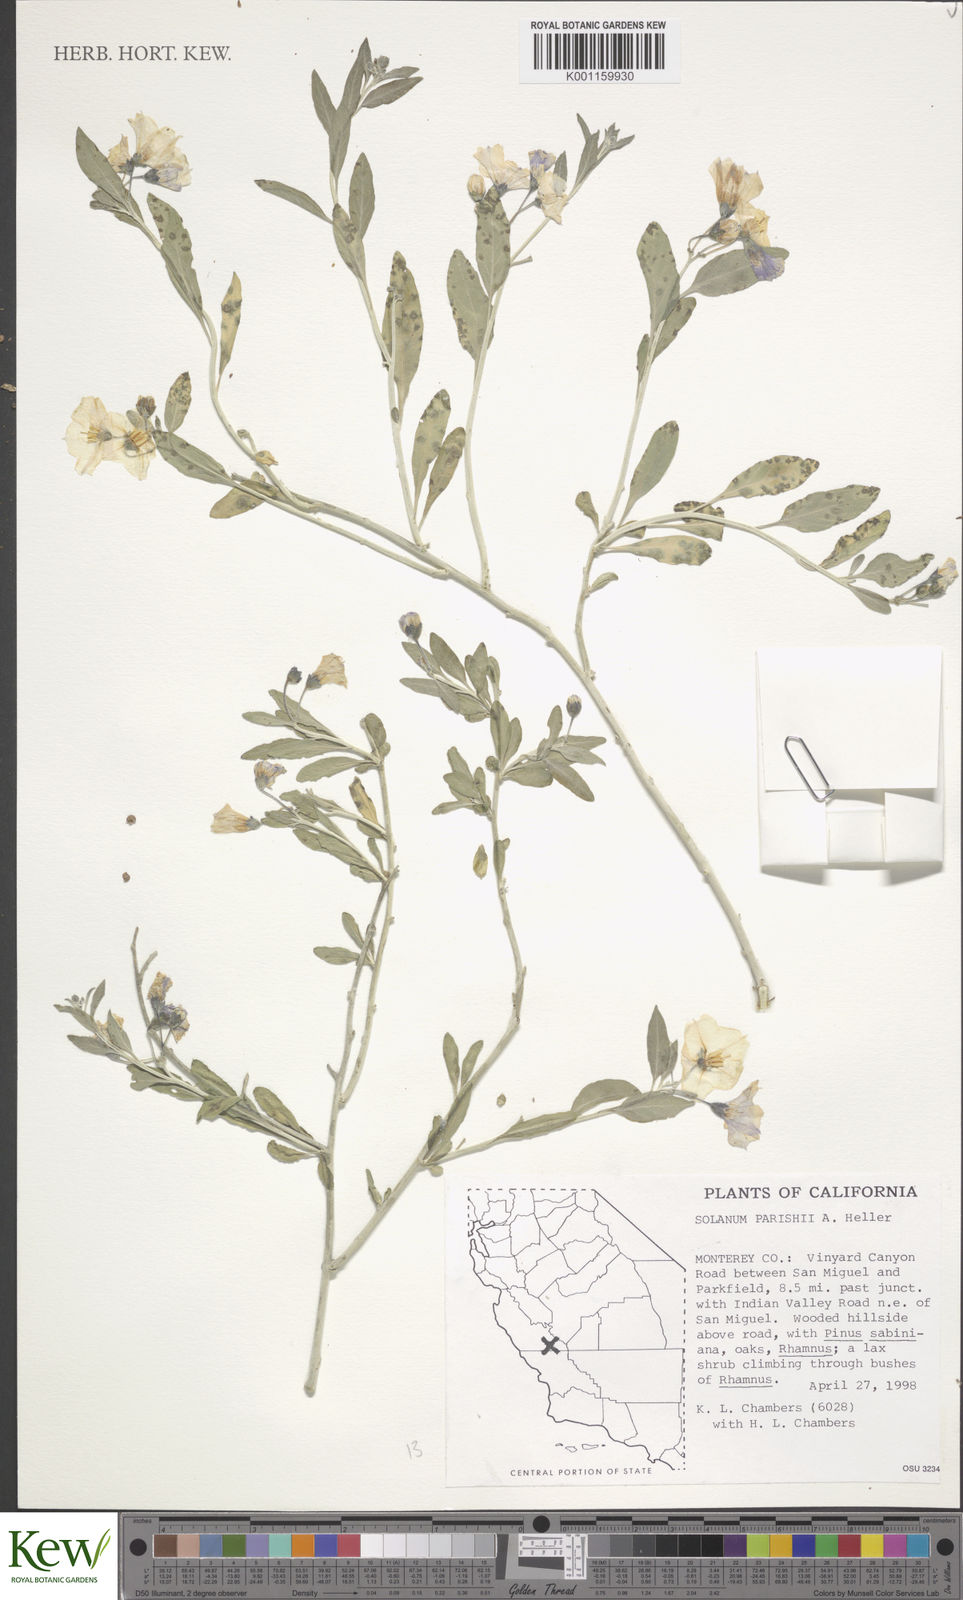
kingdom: Plantae
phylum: Tracheophyta
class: Magnoliopsida
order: Solanales
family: Solanaceae
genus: Solanum
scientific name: Solanum umbelliferum
